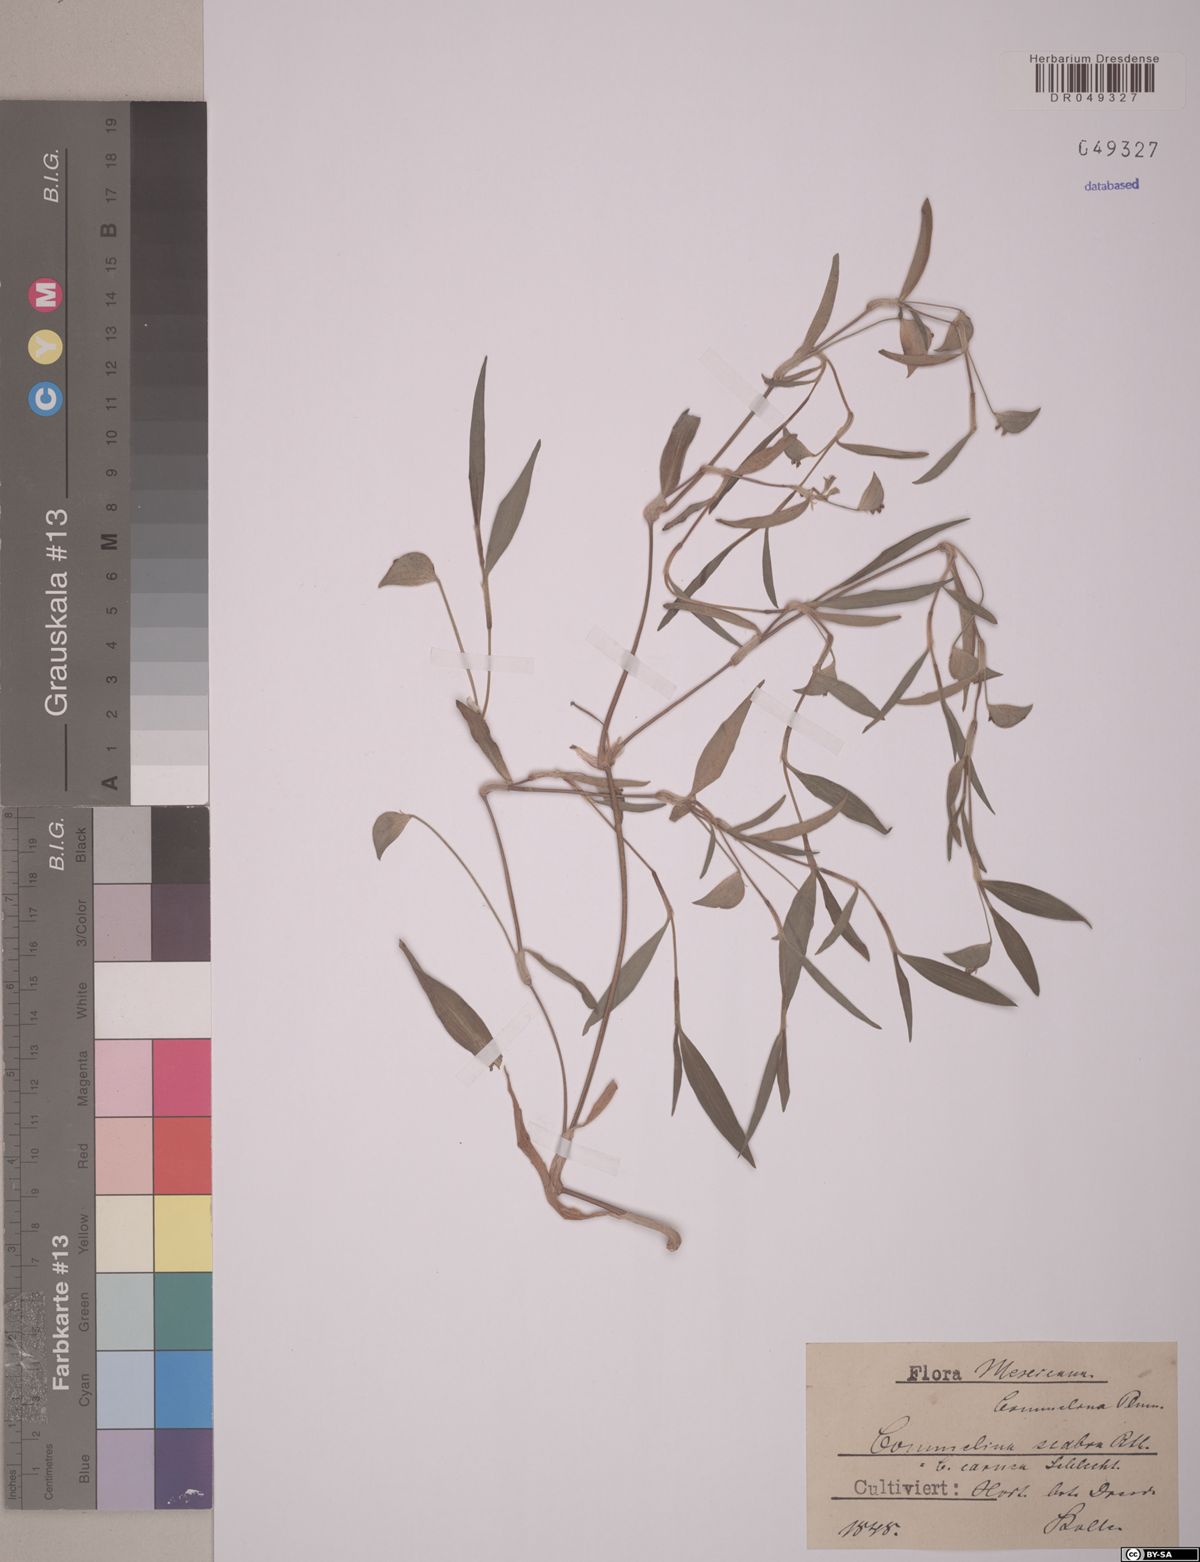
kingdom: Plantae
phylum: Tracheophyta
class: Liliopsida
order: Commelinales
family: Commelinaceae
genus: Commelina
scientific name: Commelina scabra
